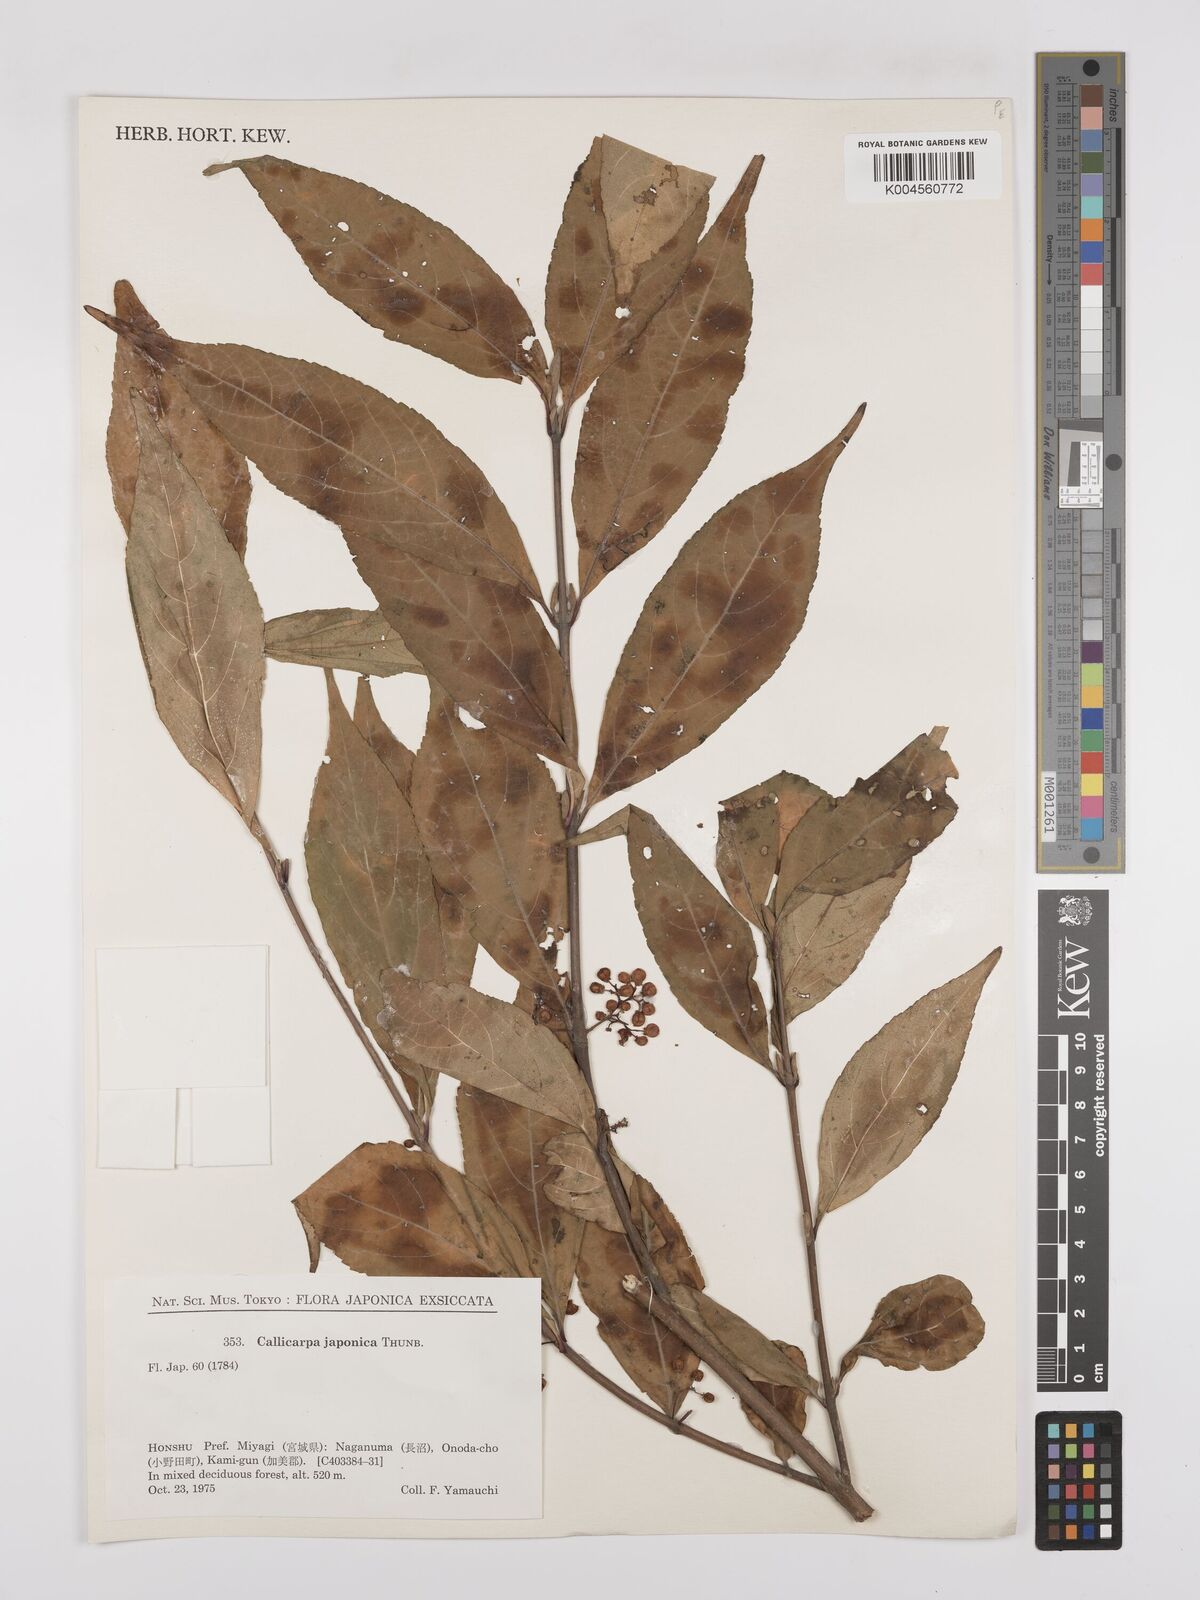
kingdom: Plantae
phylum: Tracheophyta
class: Magnoliopsida
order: Lamiales
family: Lamiaceae
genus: Callicarpa
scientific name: Callicarpa japonica
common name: Japanese beauty-berry
